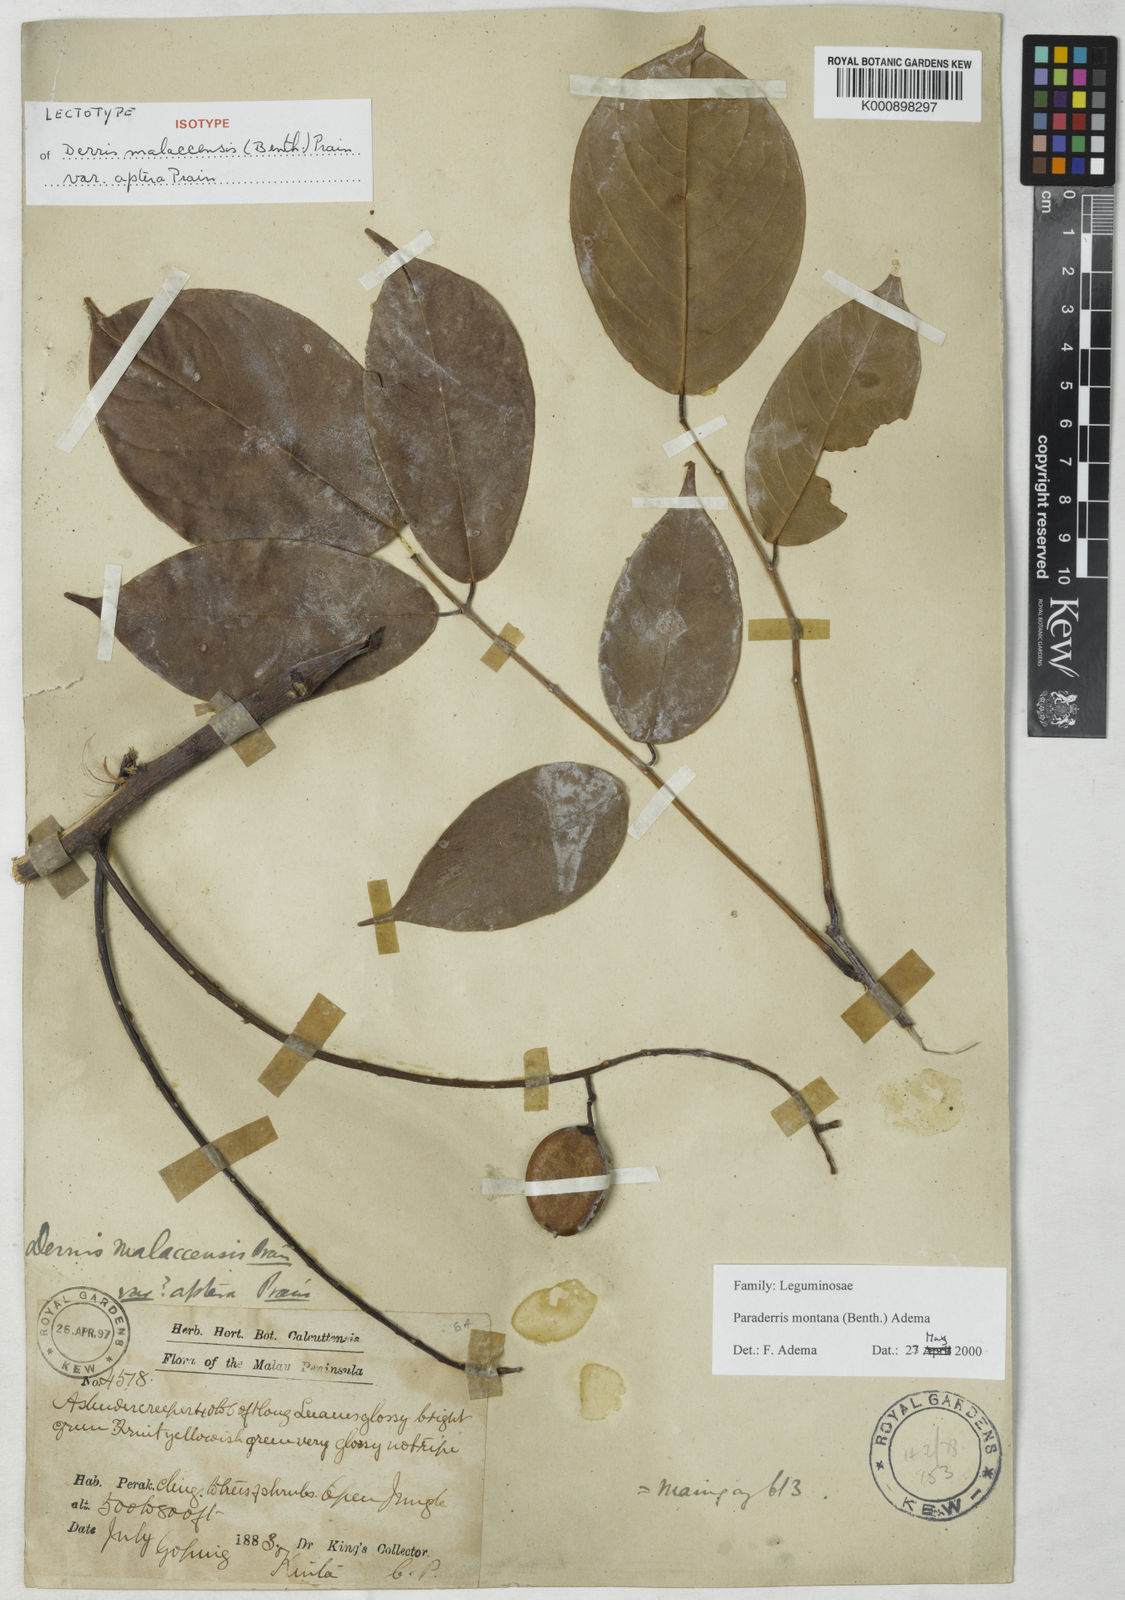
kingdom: Plantae
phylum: Tracheophyta
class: Magnoliopsida
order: Fabales
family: Fabaceae
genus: Derris
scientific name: Derris montana
